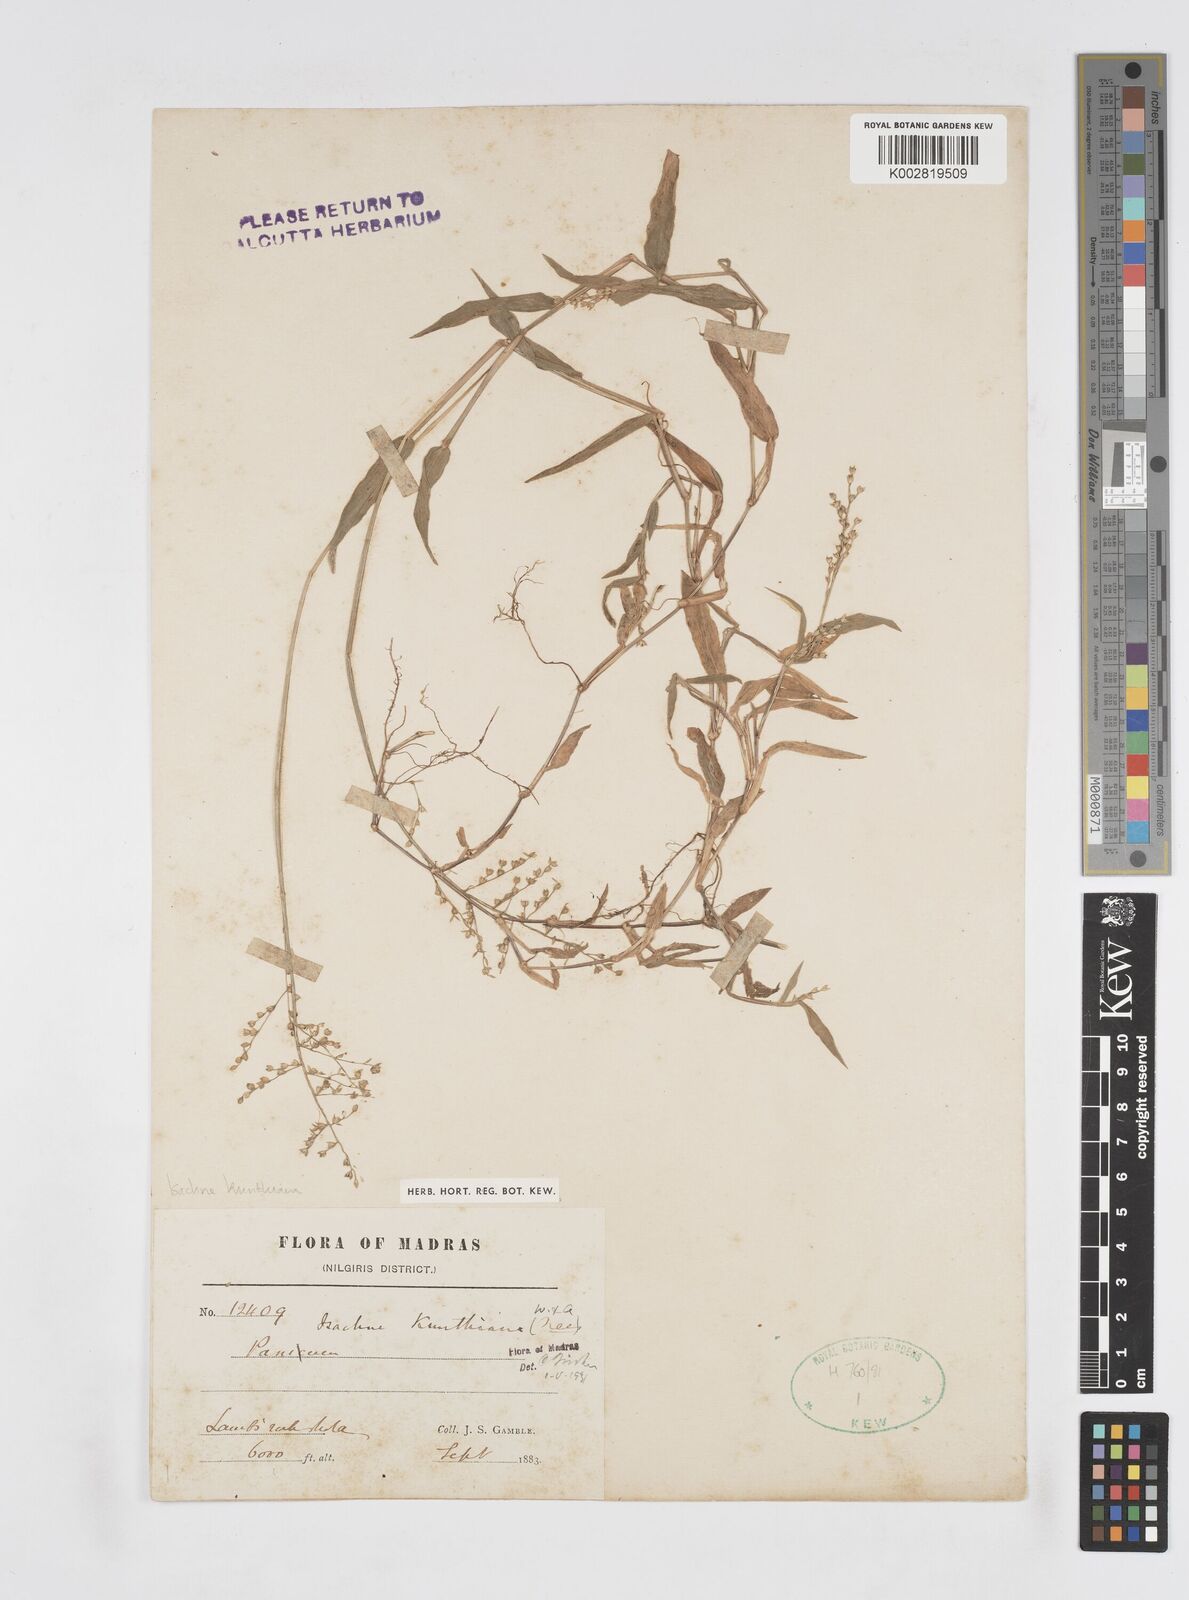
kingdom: Plantae
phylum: Tracheophyta
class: Liliopsida
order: Poales
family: Poaceae
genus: Isachne
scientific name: Isachne kunthiana
